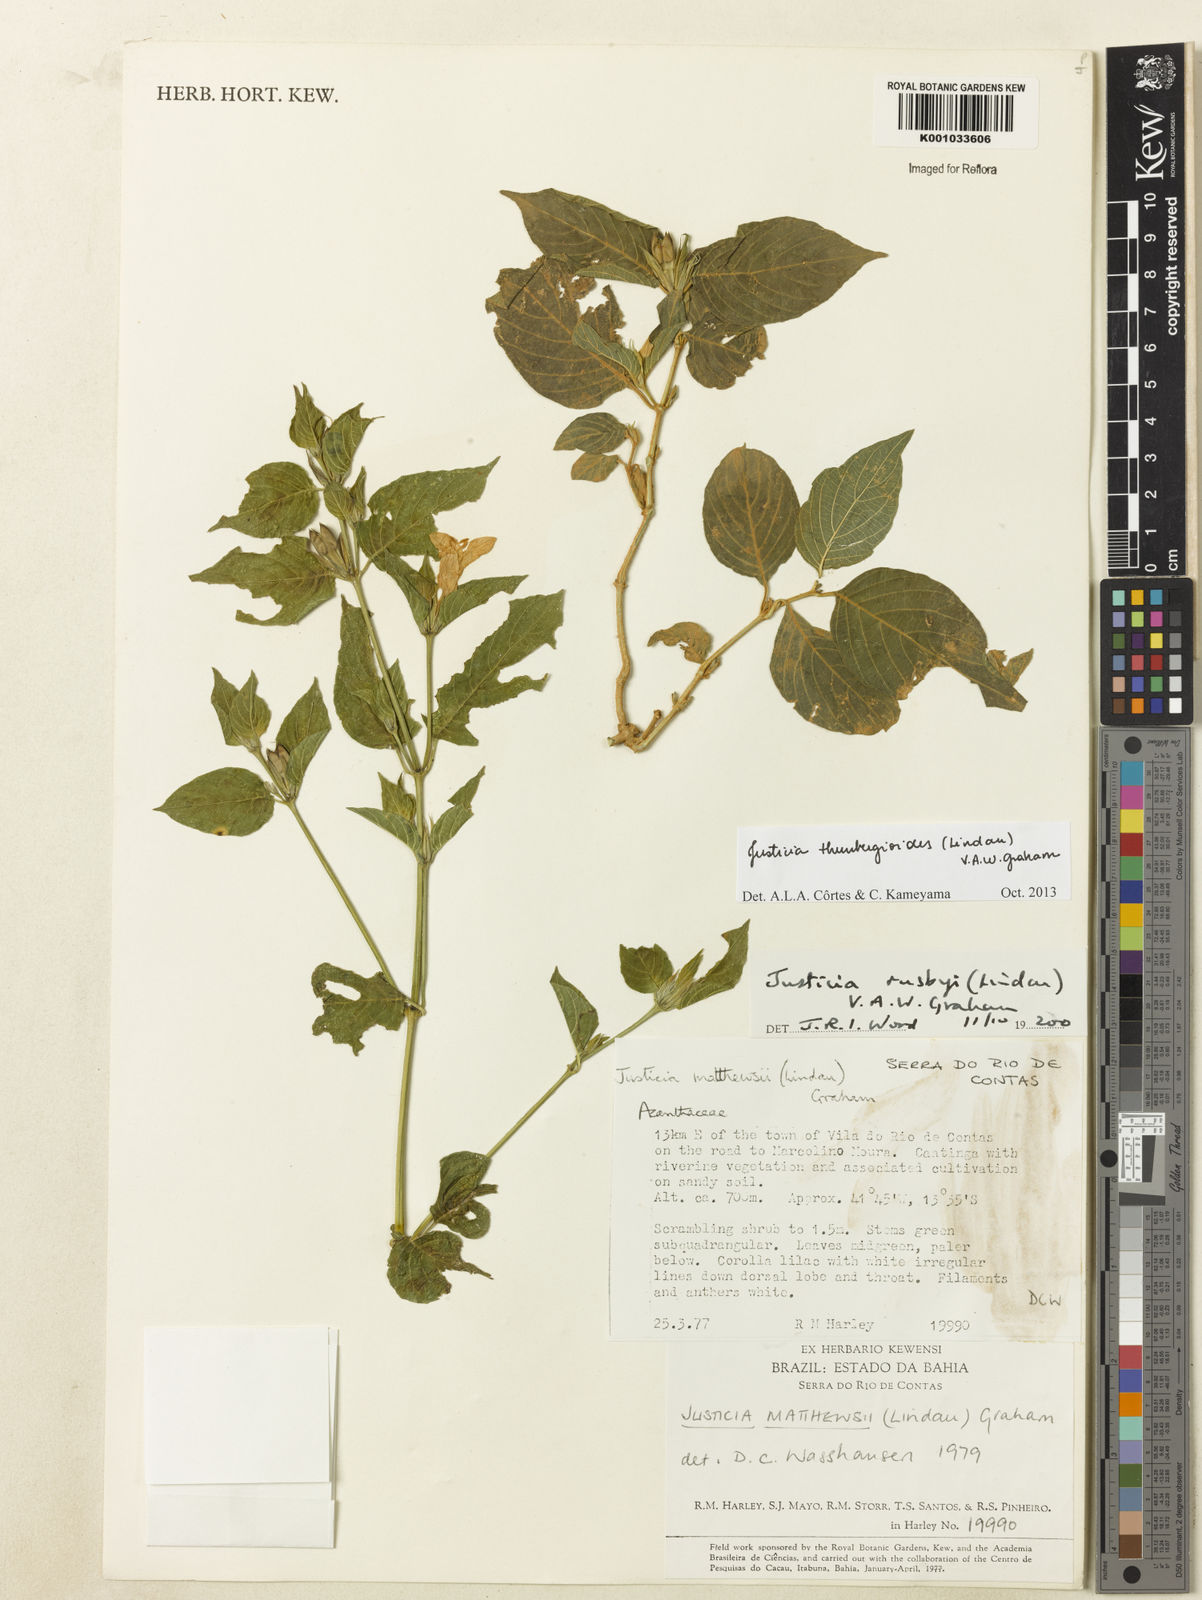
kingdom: Plantae
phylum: Tracheophyta
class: Magnoliopsida
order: Lamiales
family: Acanthaceae
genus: Justicia
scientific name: Justicia thunbergioides
